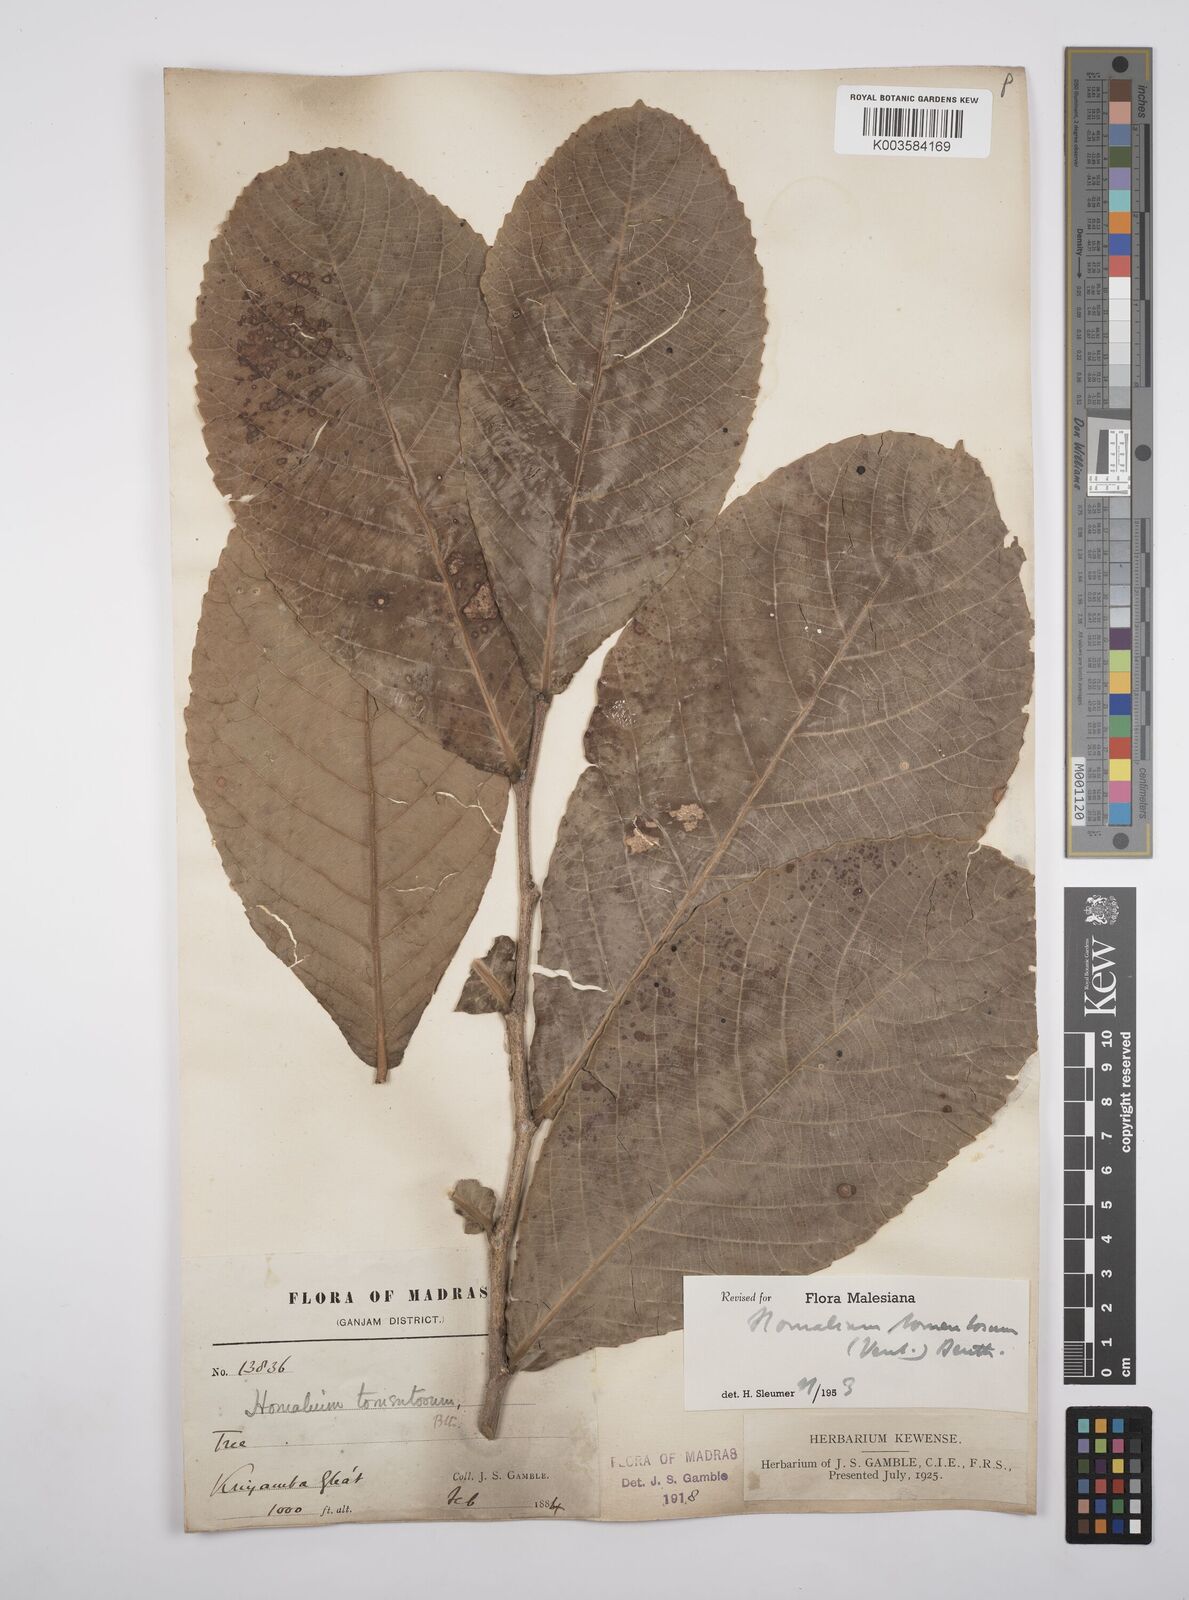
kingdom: Plantae
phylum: Tracheophyta
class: Magnoliopsida
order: Malpighiales
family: Salicaceae
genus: Homalium
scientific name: Homalium tomentosum
